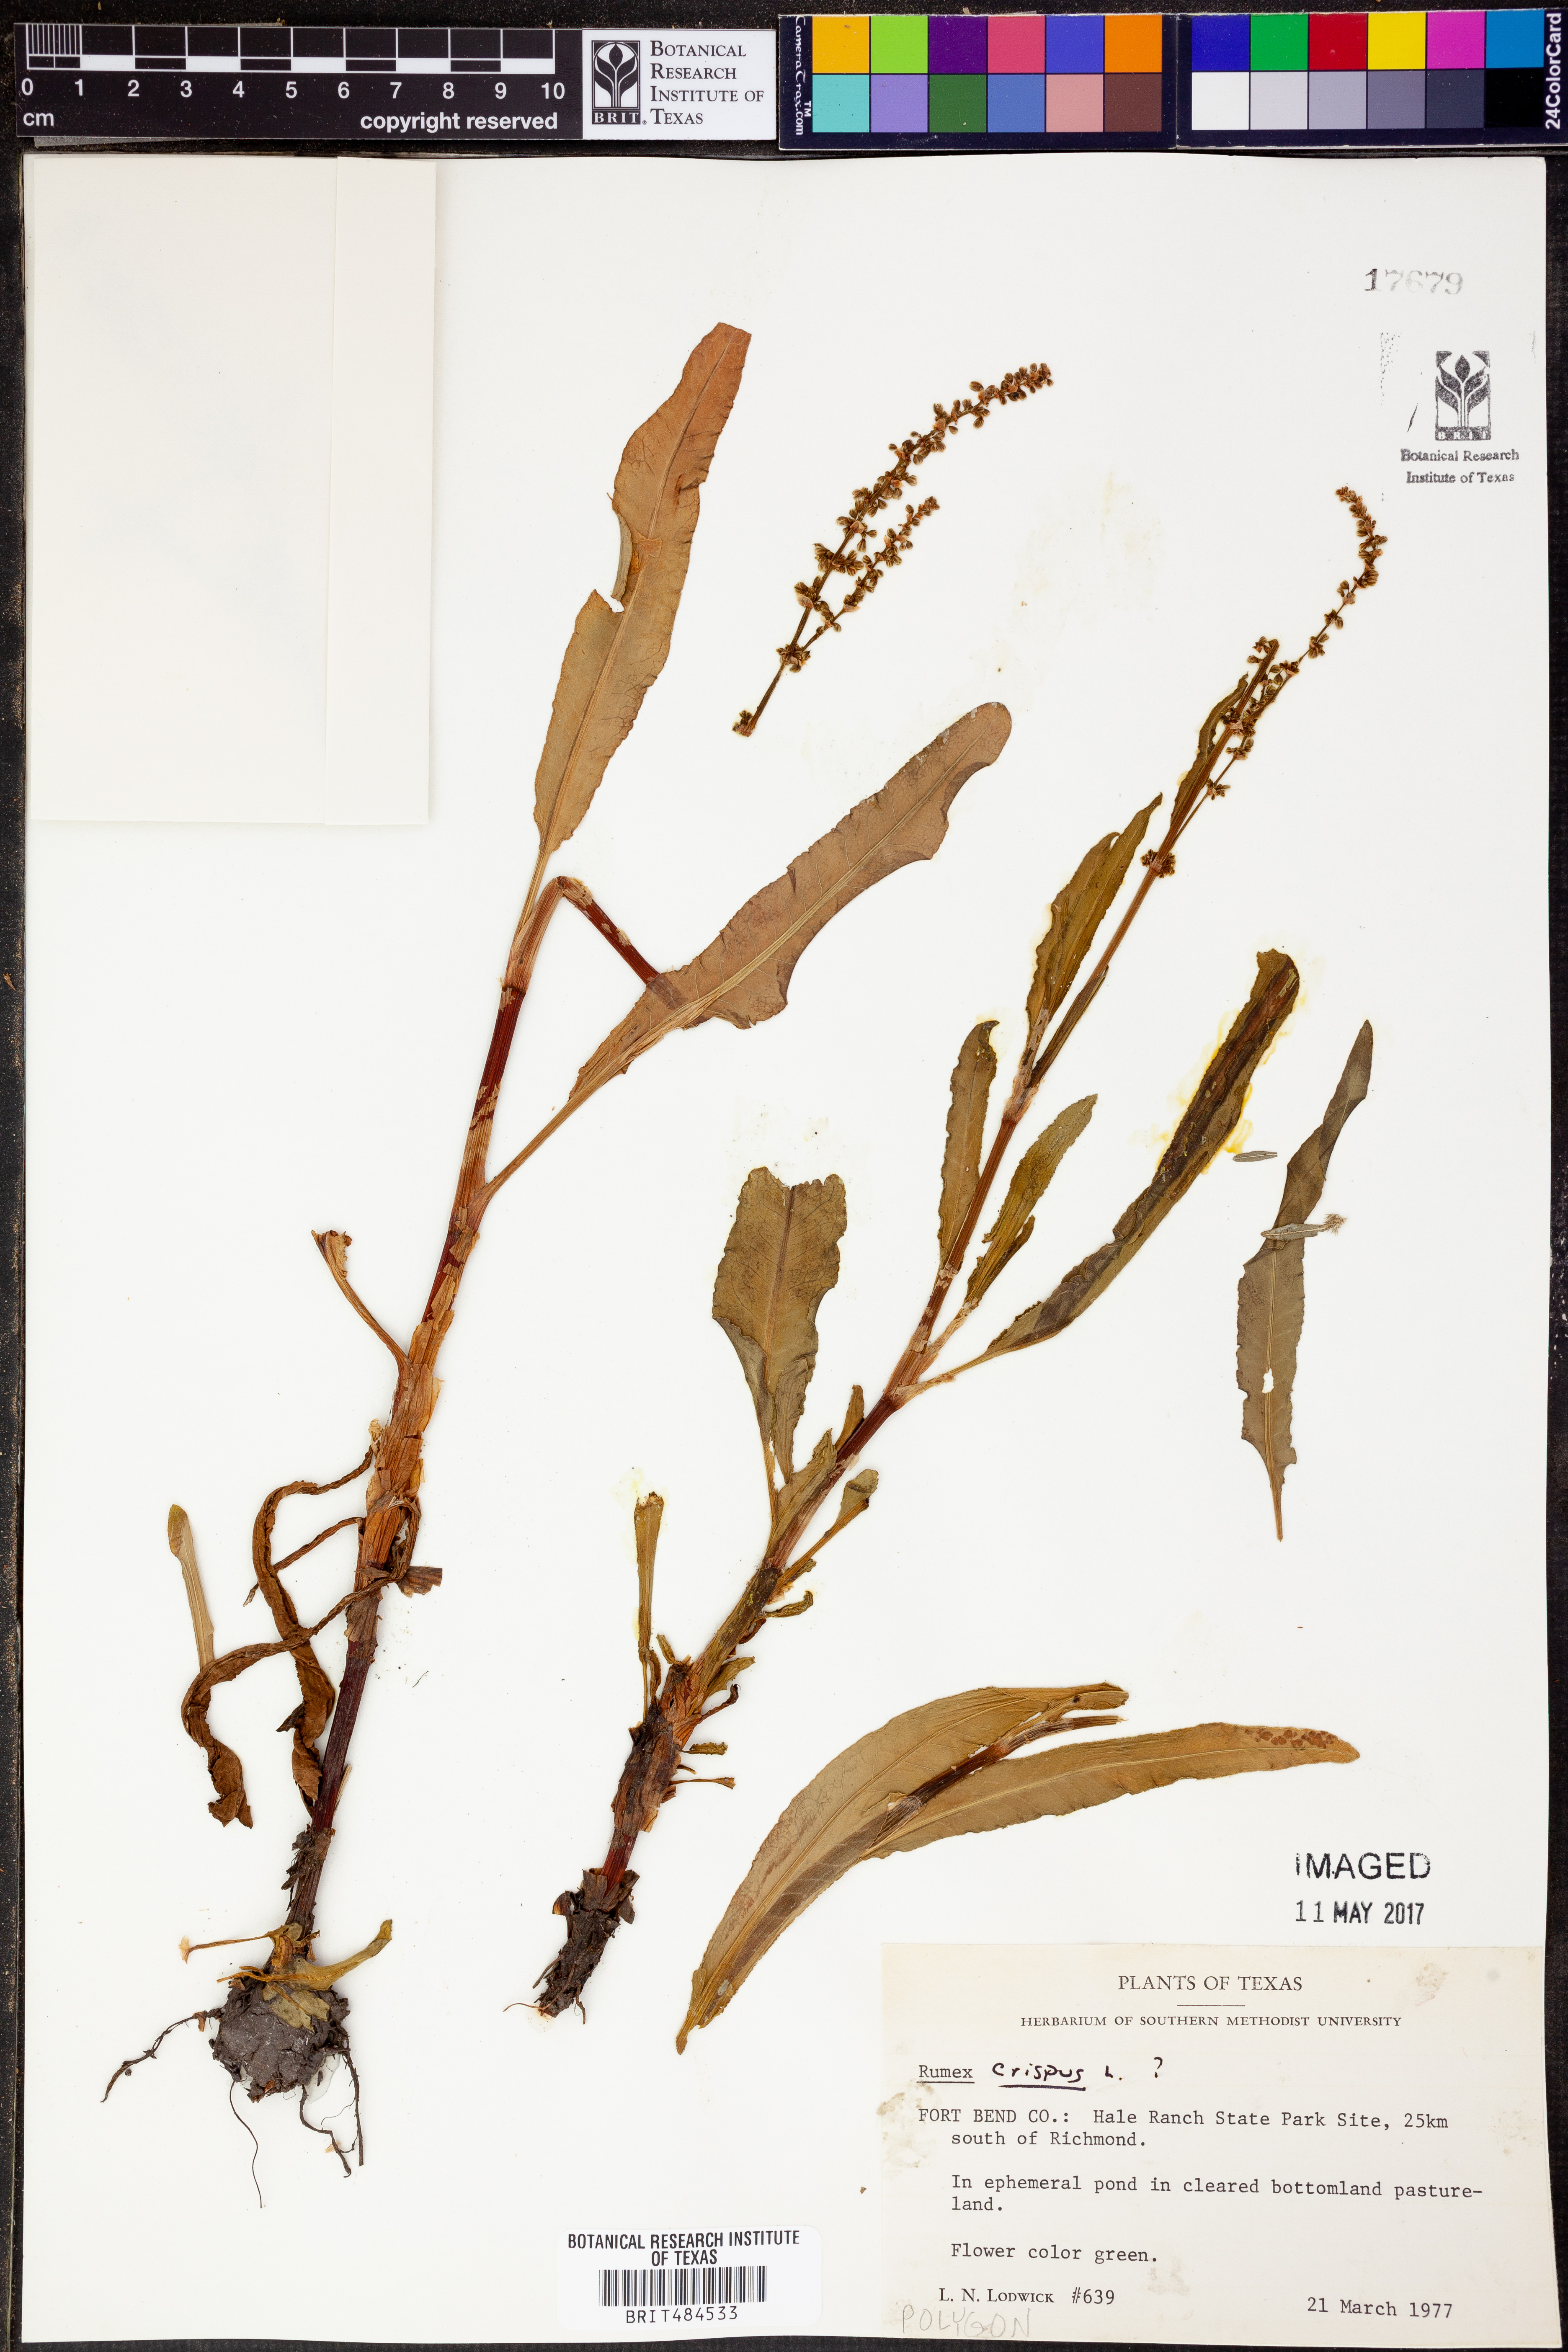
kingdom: Plantae
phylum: Tracheophyta
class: Magnoliopsida
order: Caryophyllales
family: Polygonaceae
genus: Rumex
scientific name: Rumex crispus
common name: Curled dock
